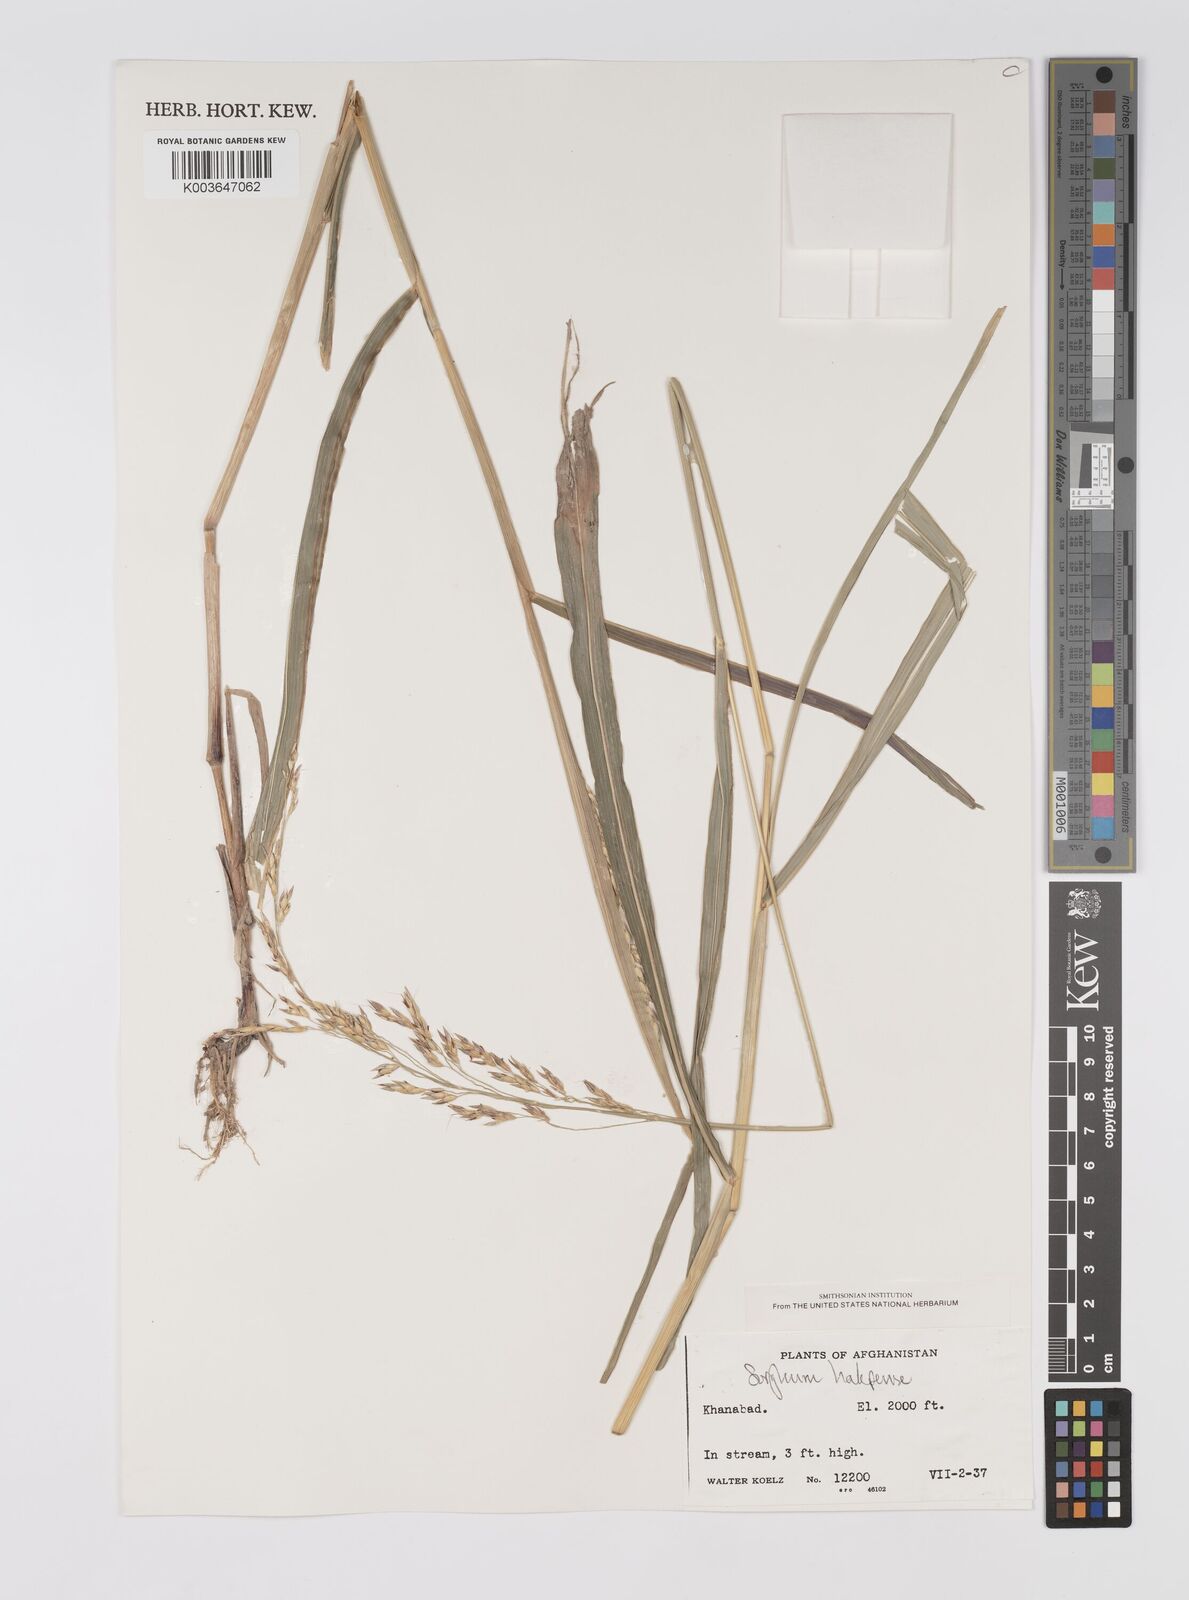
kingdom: Plantae
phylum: Tracheophyta
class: Liliopsida
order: Poales
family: Poaceae
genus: Sorghum
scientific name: Sorghum halepense
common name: Johnson-grass
